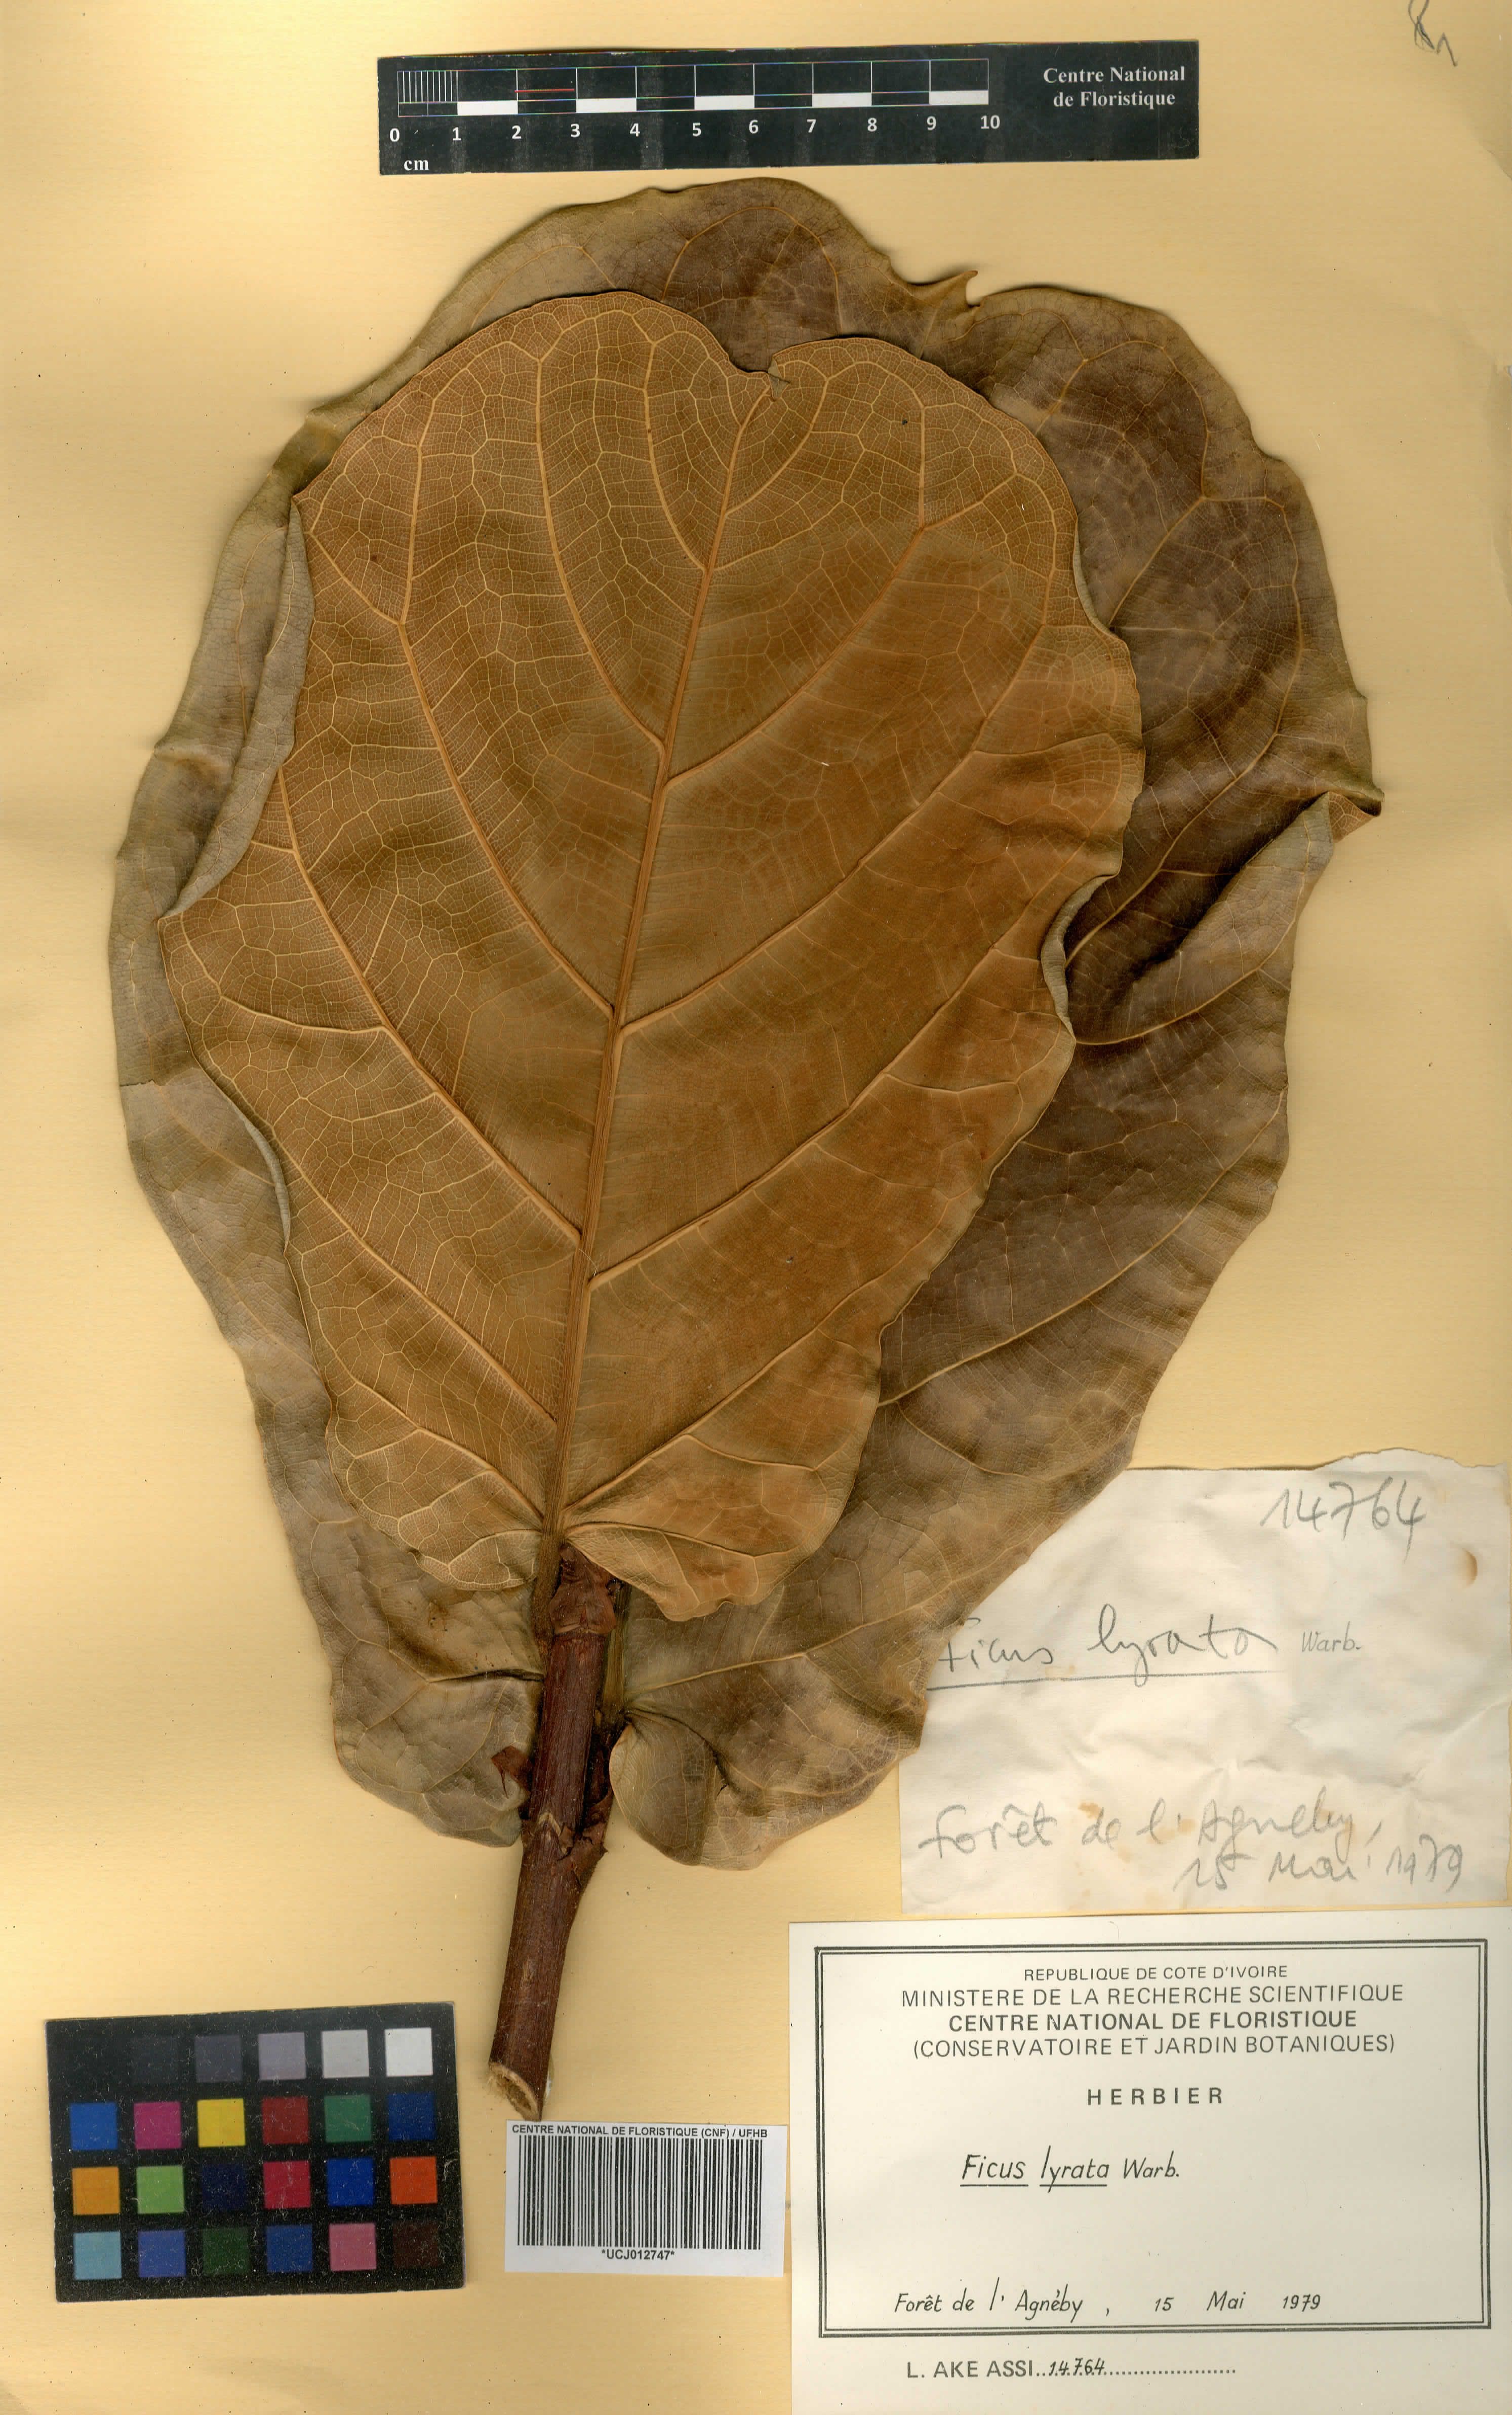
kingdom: Plantae
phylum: Tracheophyta
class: Magnoliopsida
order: Rosales
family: Moraceae
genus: Ficus
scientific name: Ficus lyrata
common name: Fiddle-leaf fig
